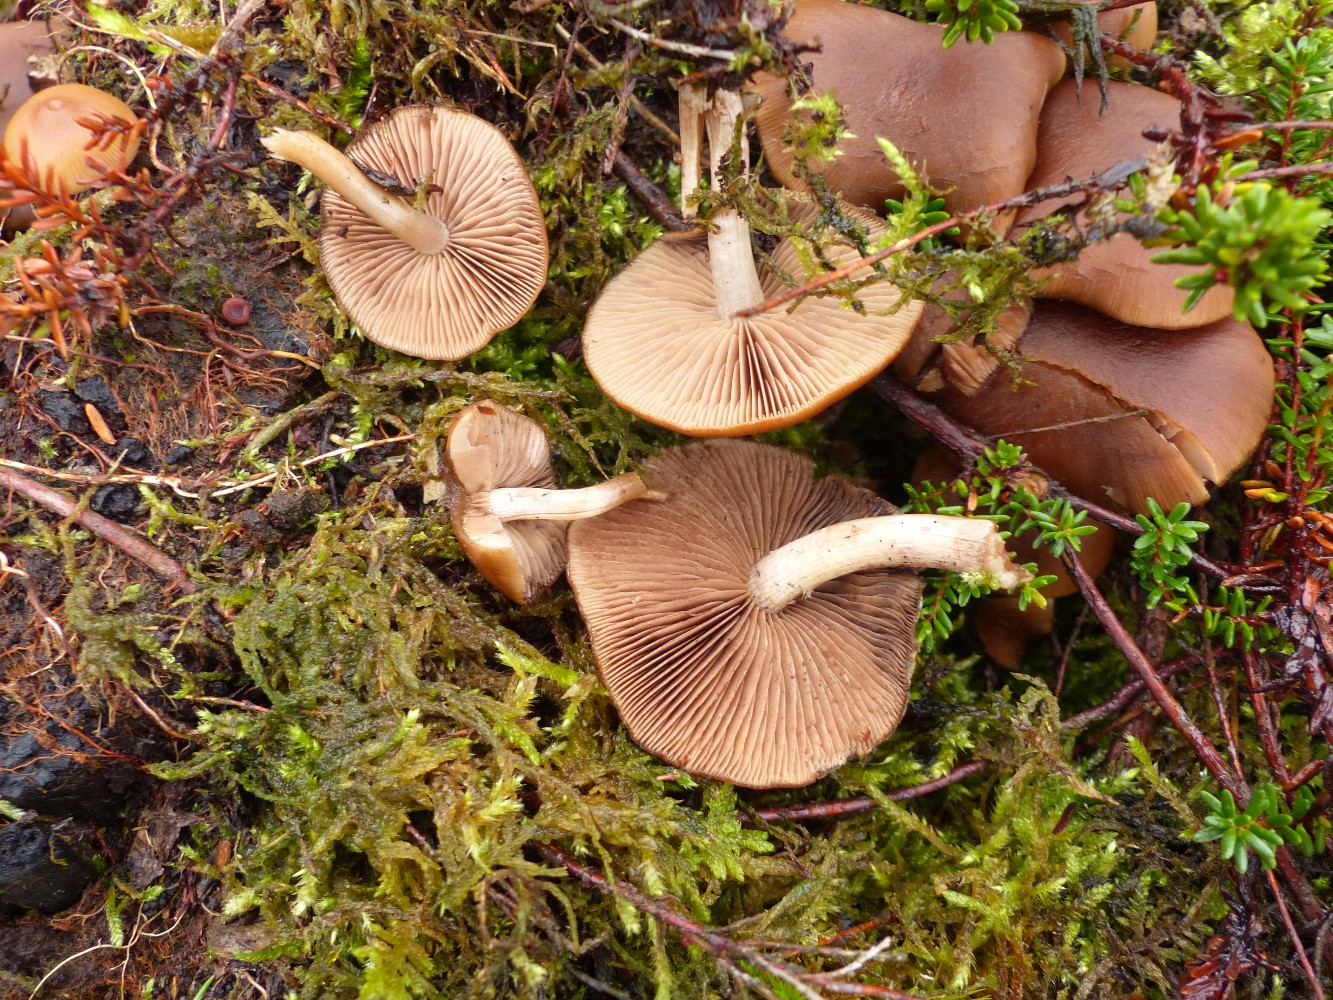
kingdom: Fungi
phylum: Basidiomycota
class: Agaricomycetes
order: Agaricales
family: Psathyrellaceae
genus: Psathyrella
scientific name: Psathyrella piluliformis
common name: lysstokket mørkhat
